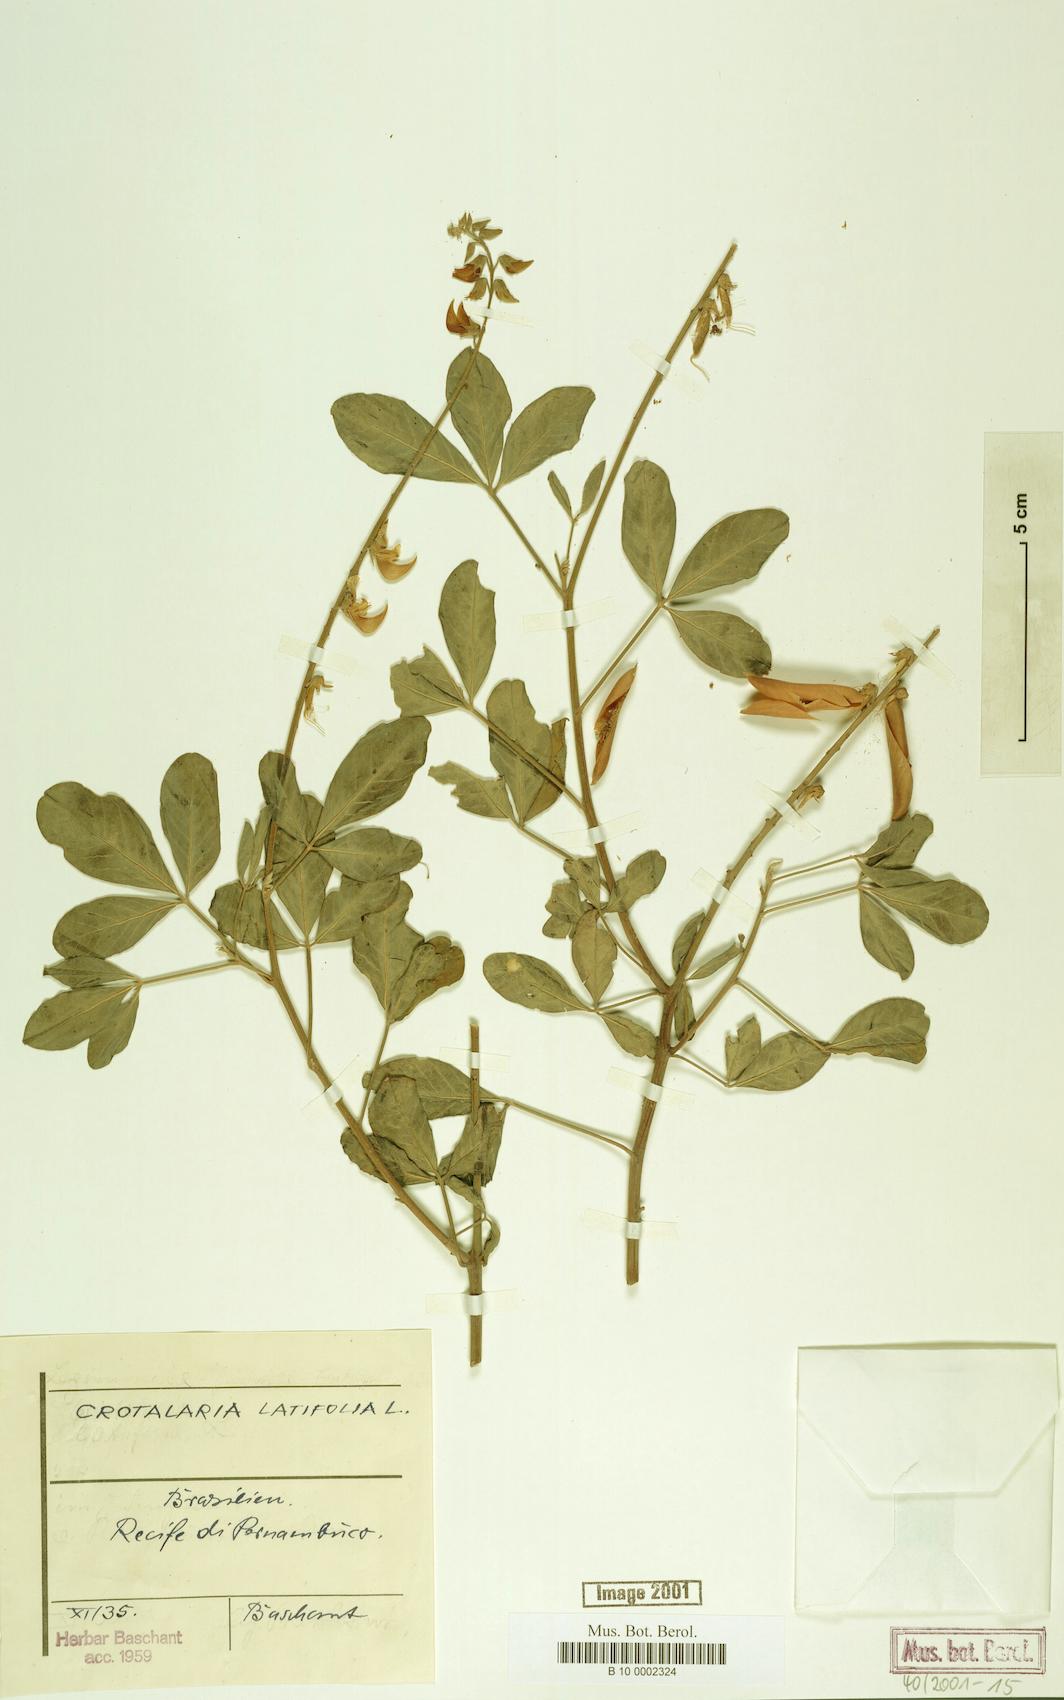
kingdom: Plantae
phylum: Tracheophyta
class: Magnoliopsida
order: Fabales
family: Fabaceae
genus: Crotalaria
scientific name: Crotalaria pallida
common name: Smooth rattlebox
